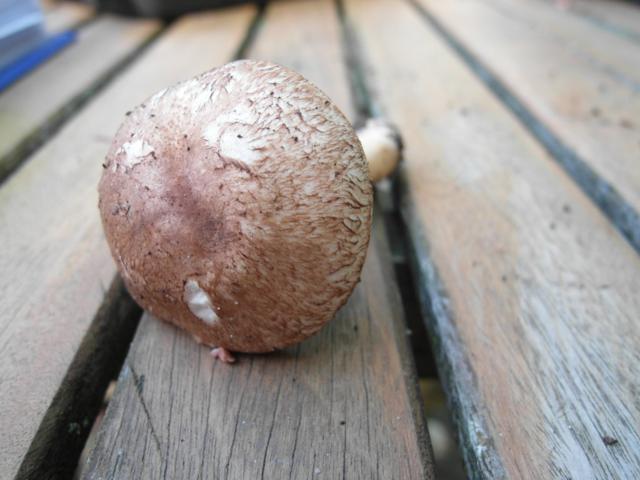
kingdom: Fungi
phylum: Basidiomycota
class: Agaricomycetes
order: Agaricales
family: Agaricaceae
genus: Agaricus
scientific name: Agaricus sylvaticus
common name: lille blod-champignon
